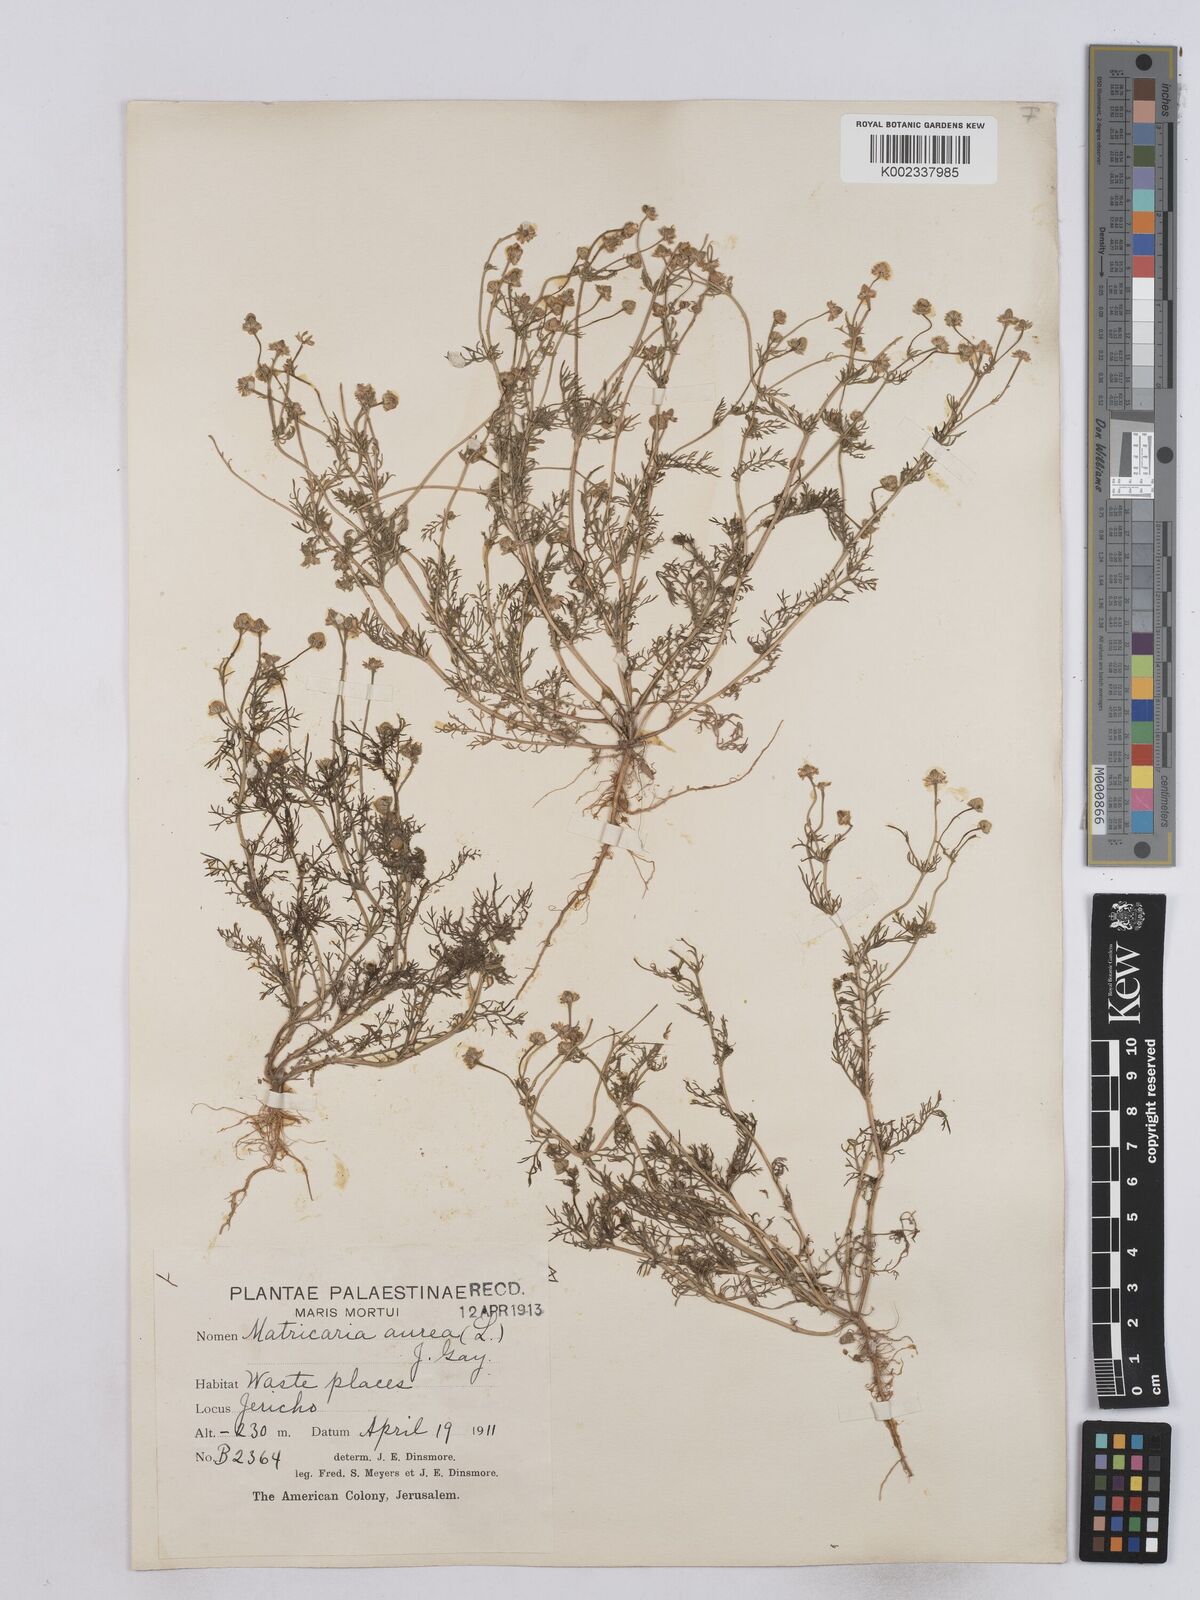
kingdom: Plantae
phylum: Tracheophyta
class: Magnoliopsida
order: Asterales
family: Asteraceae
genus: Matricaria
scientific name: Matricaria aurea
